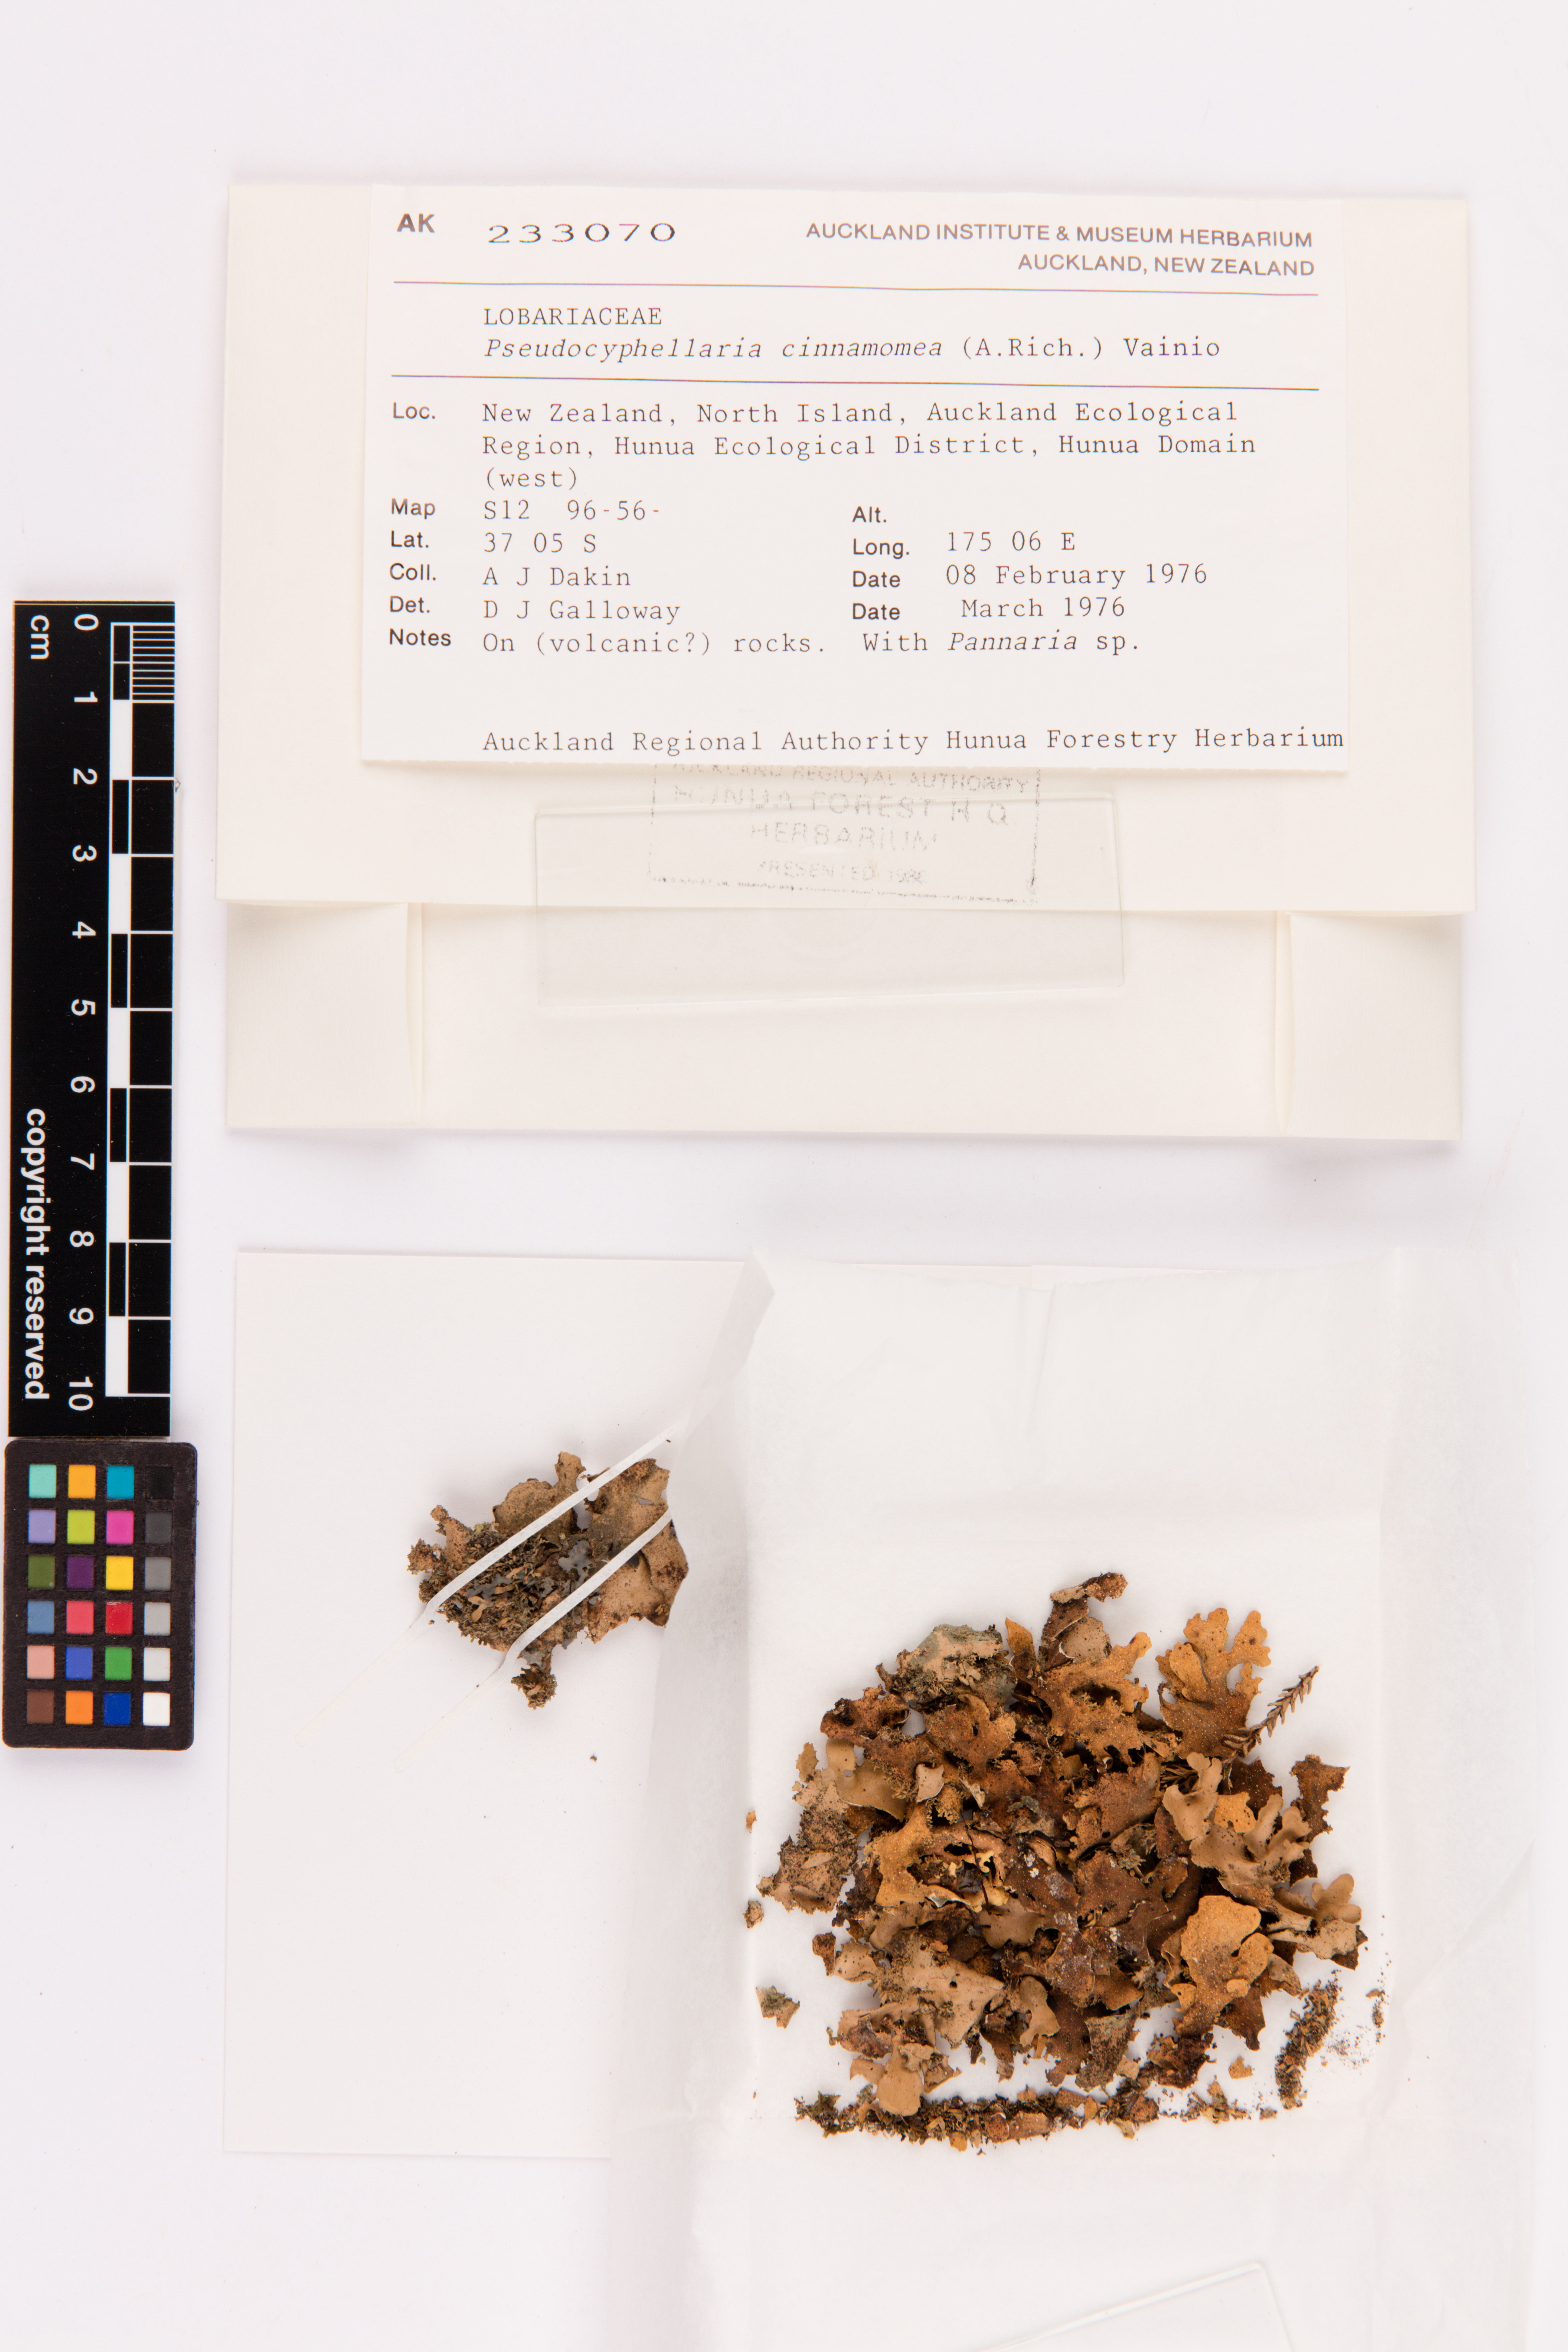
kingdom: Fungi
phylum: Ascomycota
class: Lecanoromycetes
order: Peltigerales
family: Lobariaceae
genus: Pseudocyphellaria
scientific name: Pseudocyphellaria cinnamomea
